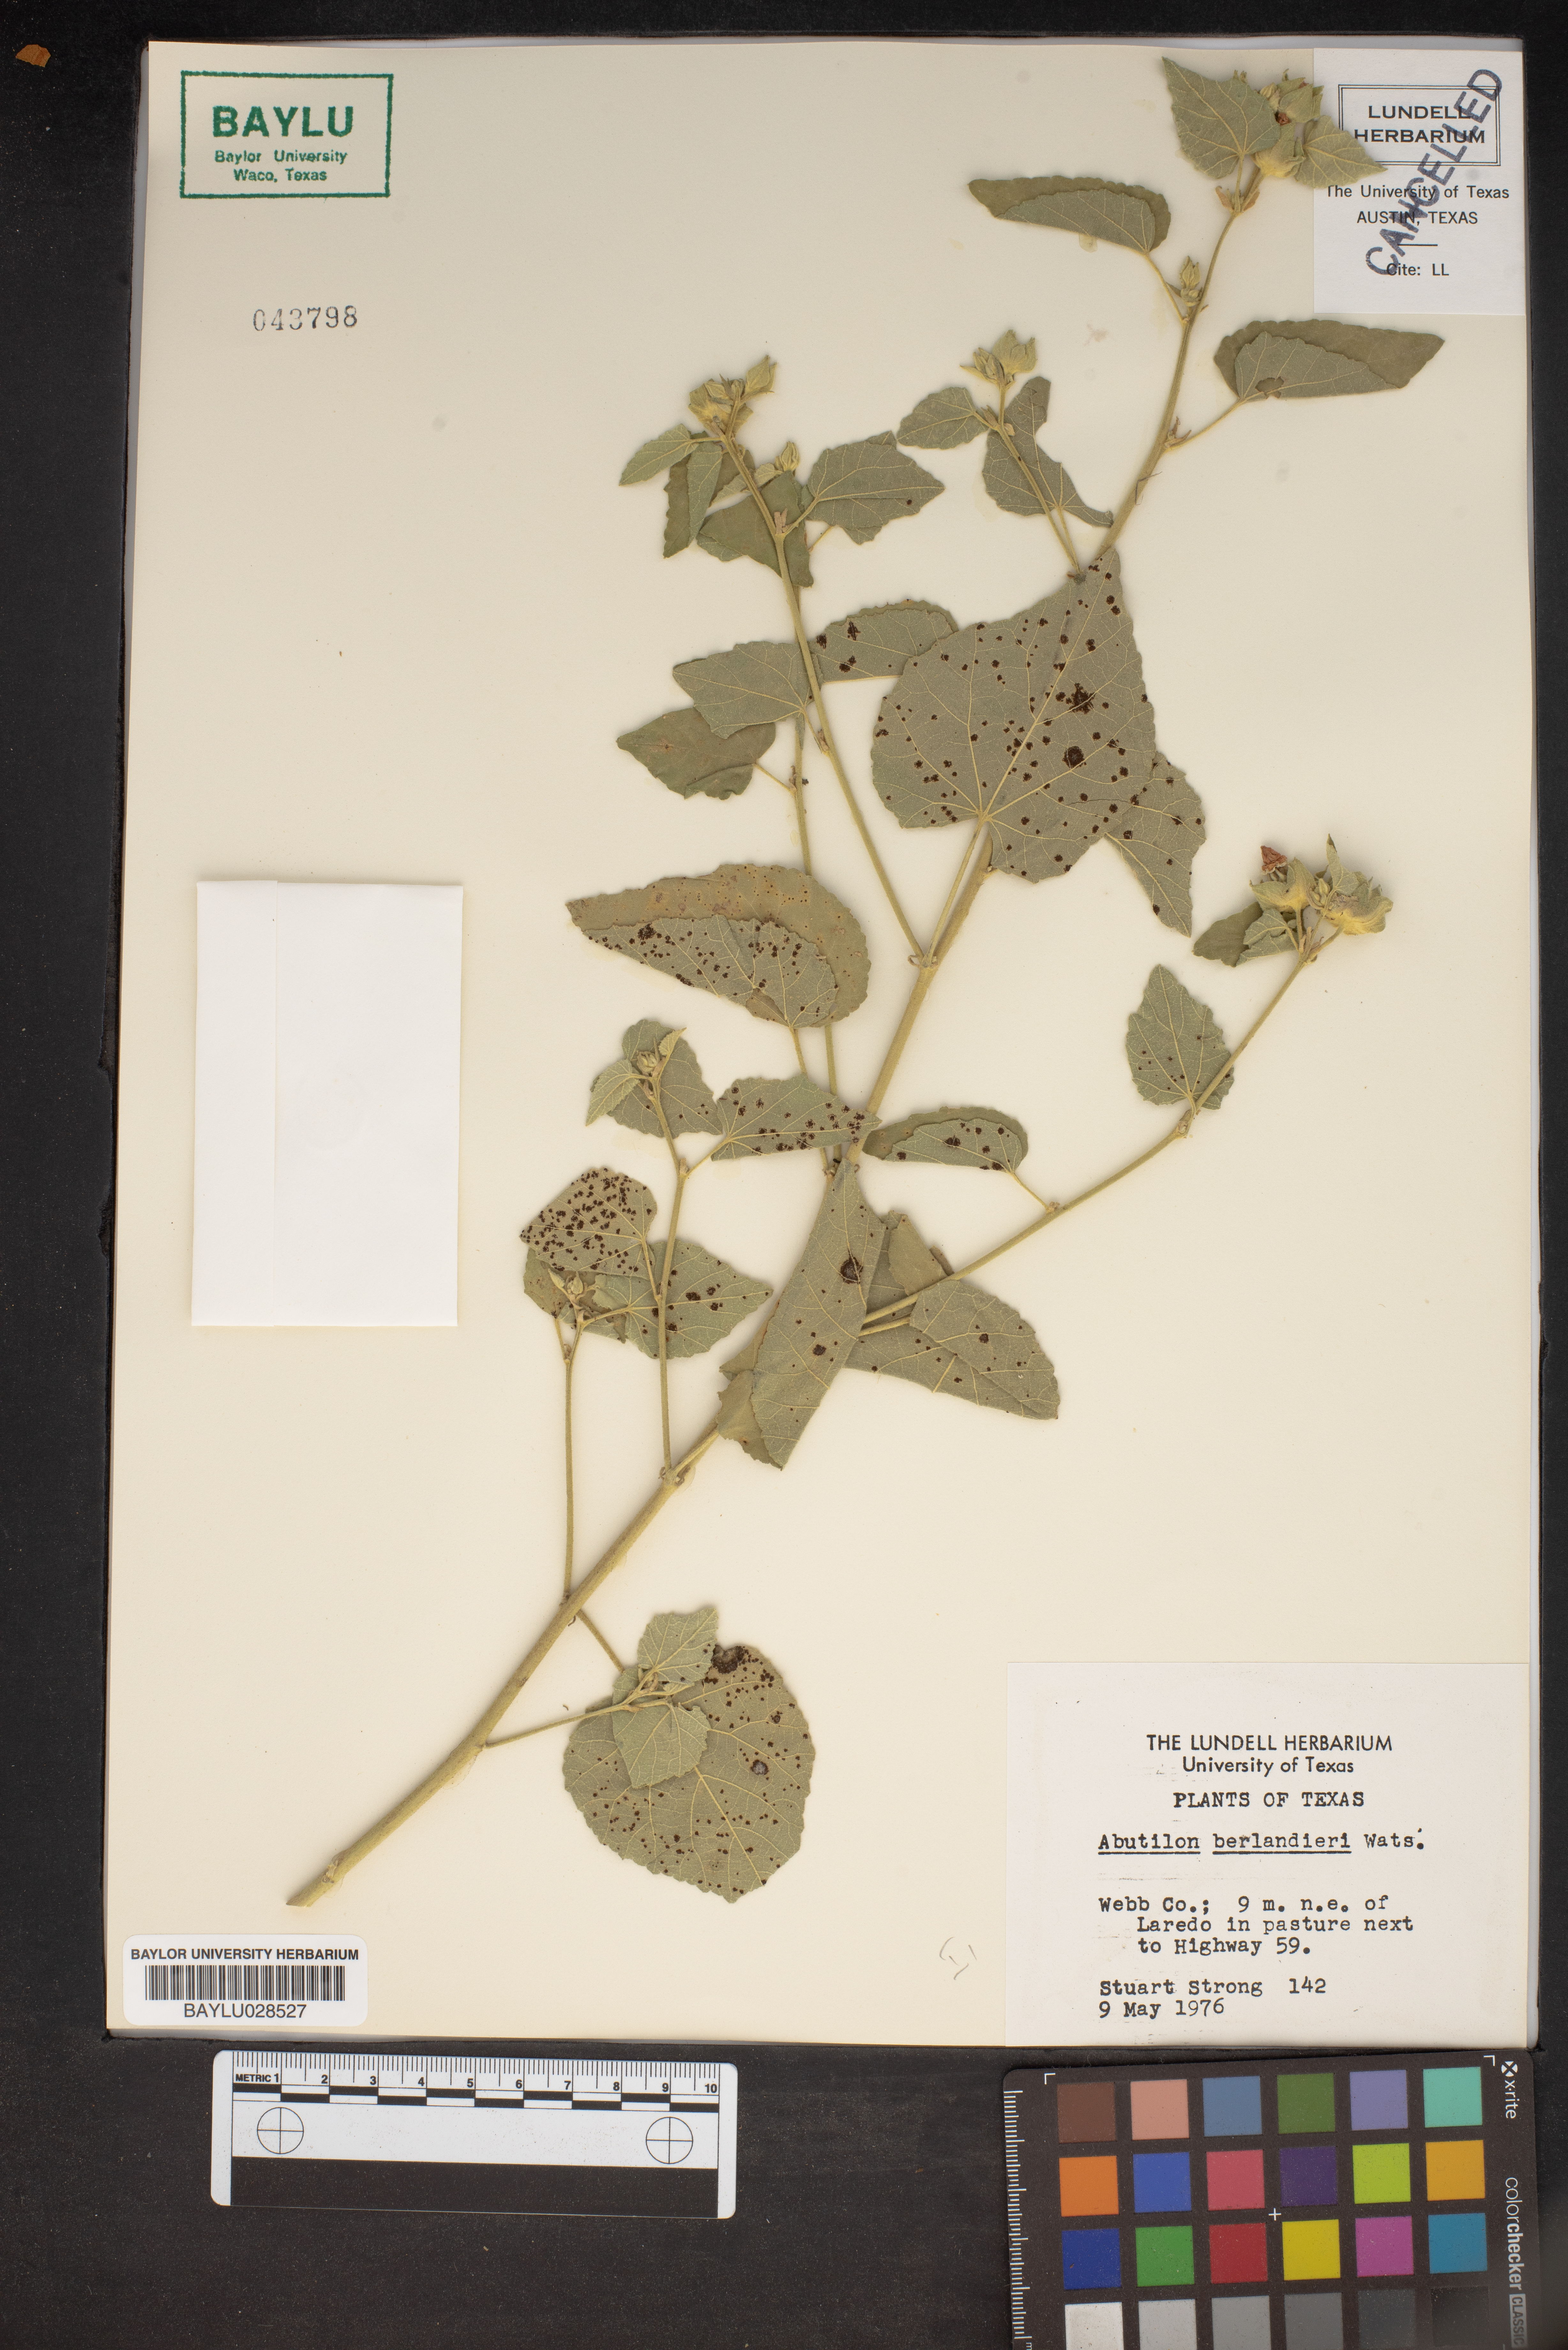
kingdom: Plantae
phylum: Tracheophyta
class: Magnoliopsida
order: Malvales
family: Malvaceae
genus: Abutilon
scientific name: Abutilon berlandieri
